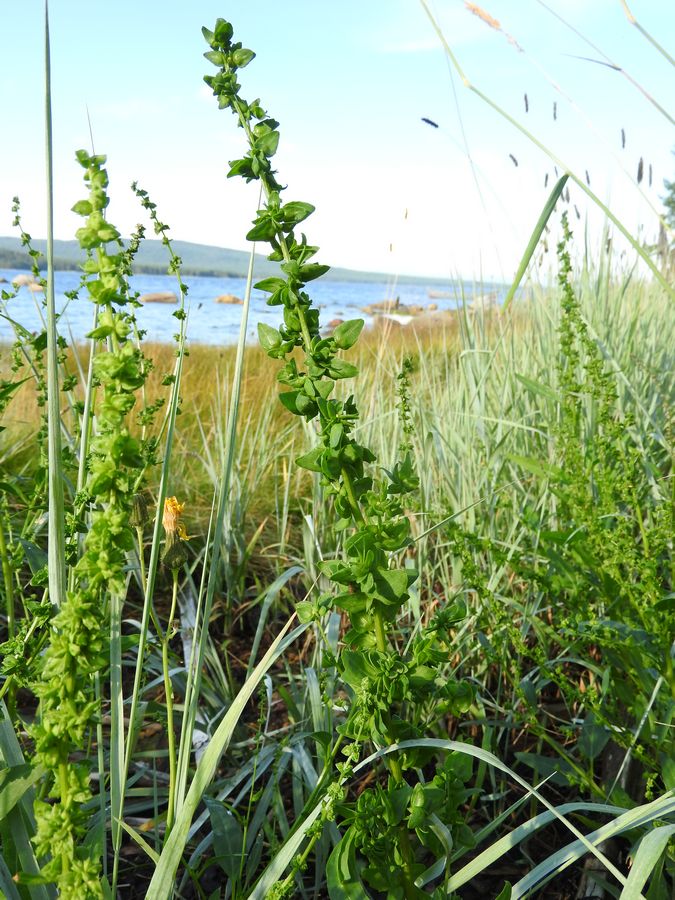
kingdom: Plantae
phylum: Tracheophyta
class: Magnoliopsida
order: Caryophyllales
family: Amaranthaceae
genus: Atriplex
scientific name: Atriplex nudicaulis
